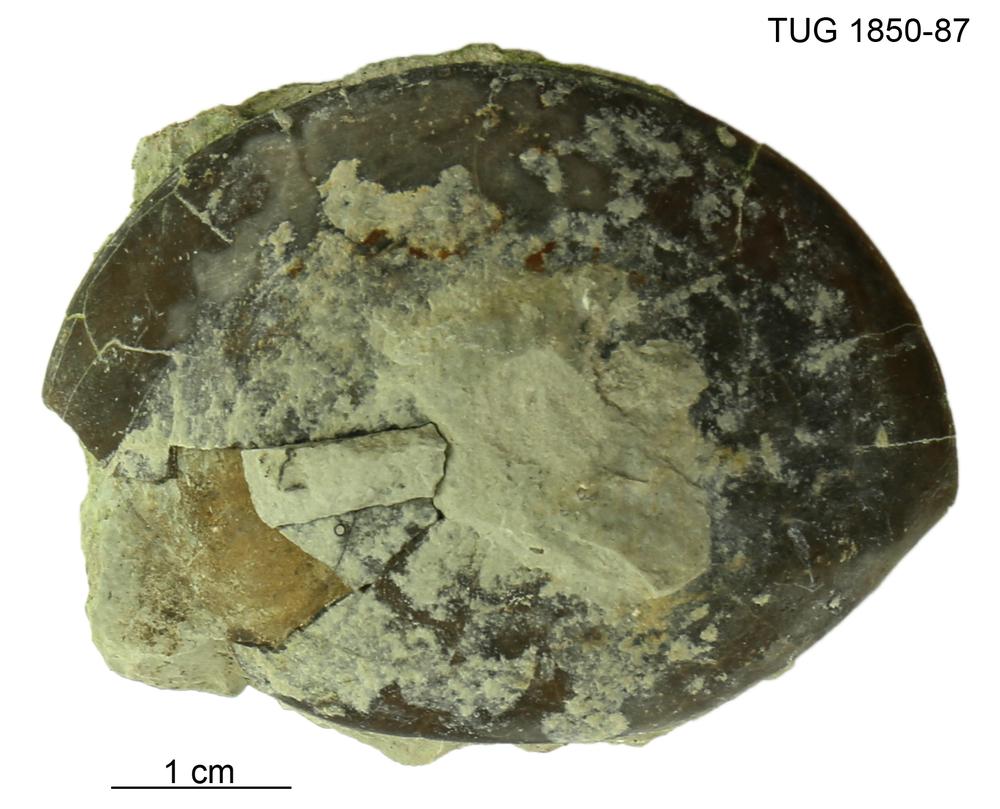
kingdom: Animalia
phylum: Arthropoda
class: Trilobita
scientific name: Trilobita
